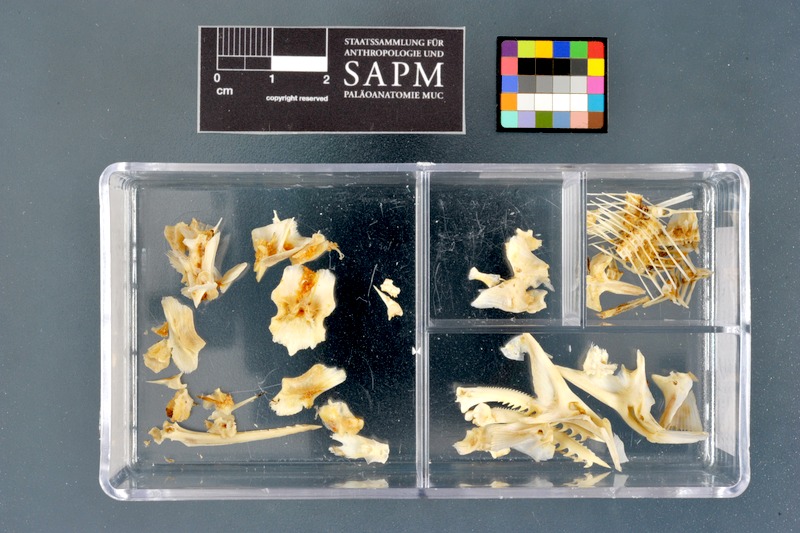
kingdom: Animalia
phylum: Chordata
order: Siluriformes
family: Mochokidae
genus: Synodontis
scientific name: Synodontis schall
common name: Wahrindi
